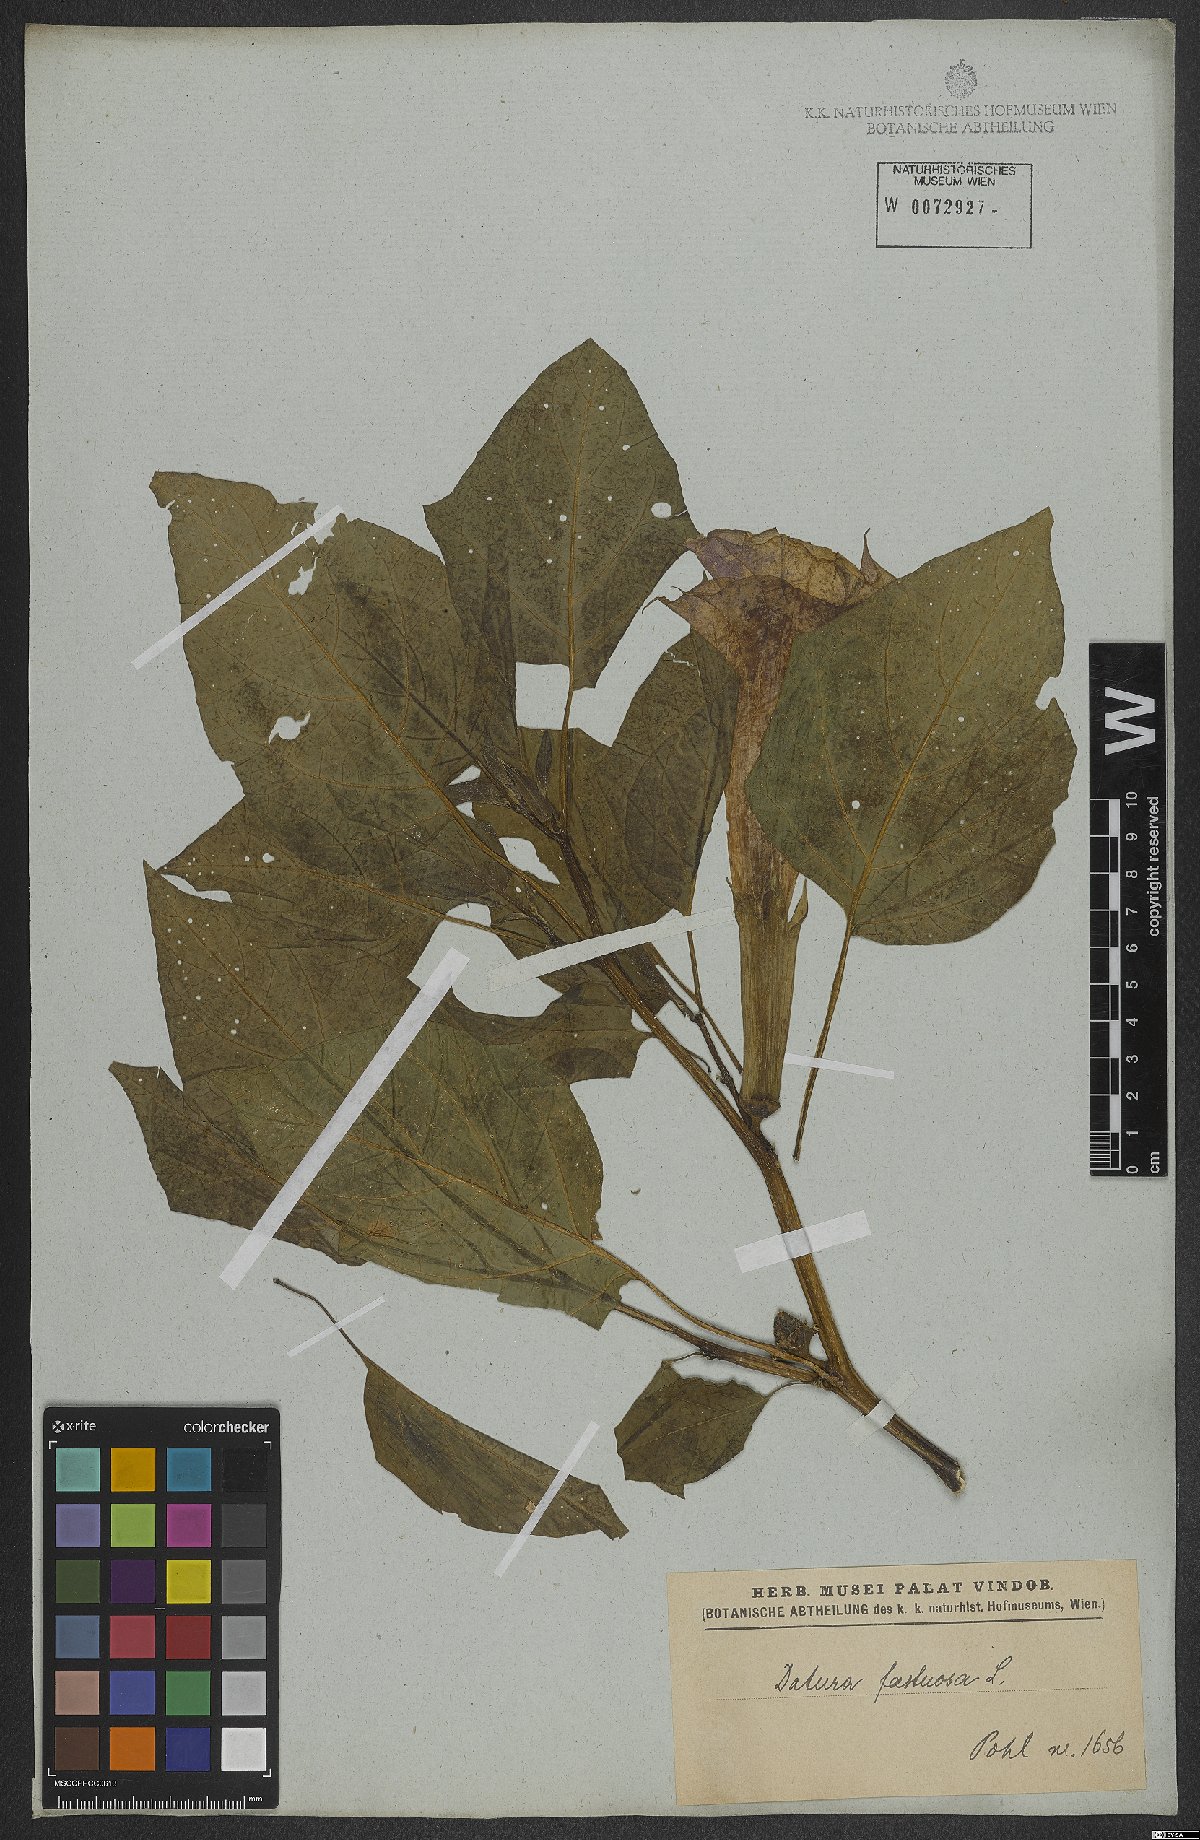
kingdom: Plantae
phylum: Tracheophyta
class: Magnoliopsida
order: Solanales
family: Solanaceae
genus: Datura
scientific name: Datura metel
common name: Jimsonweed
